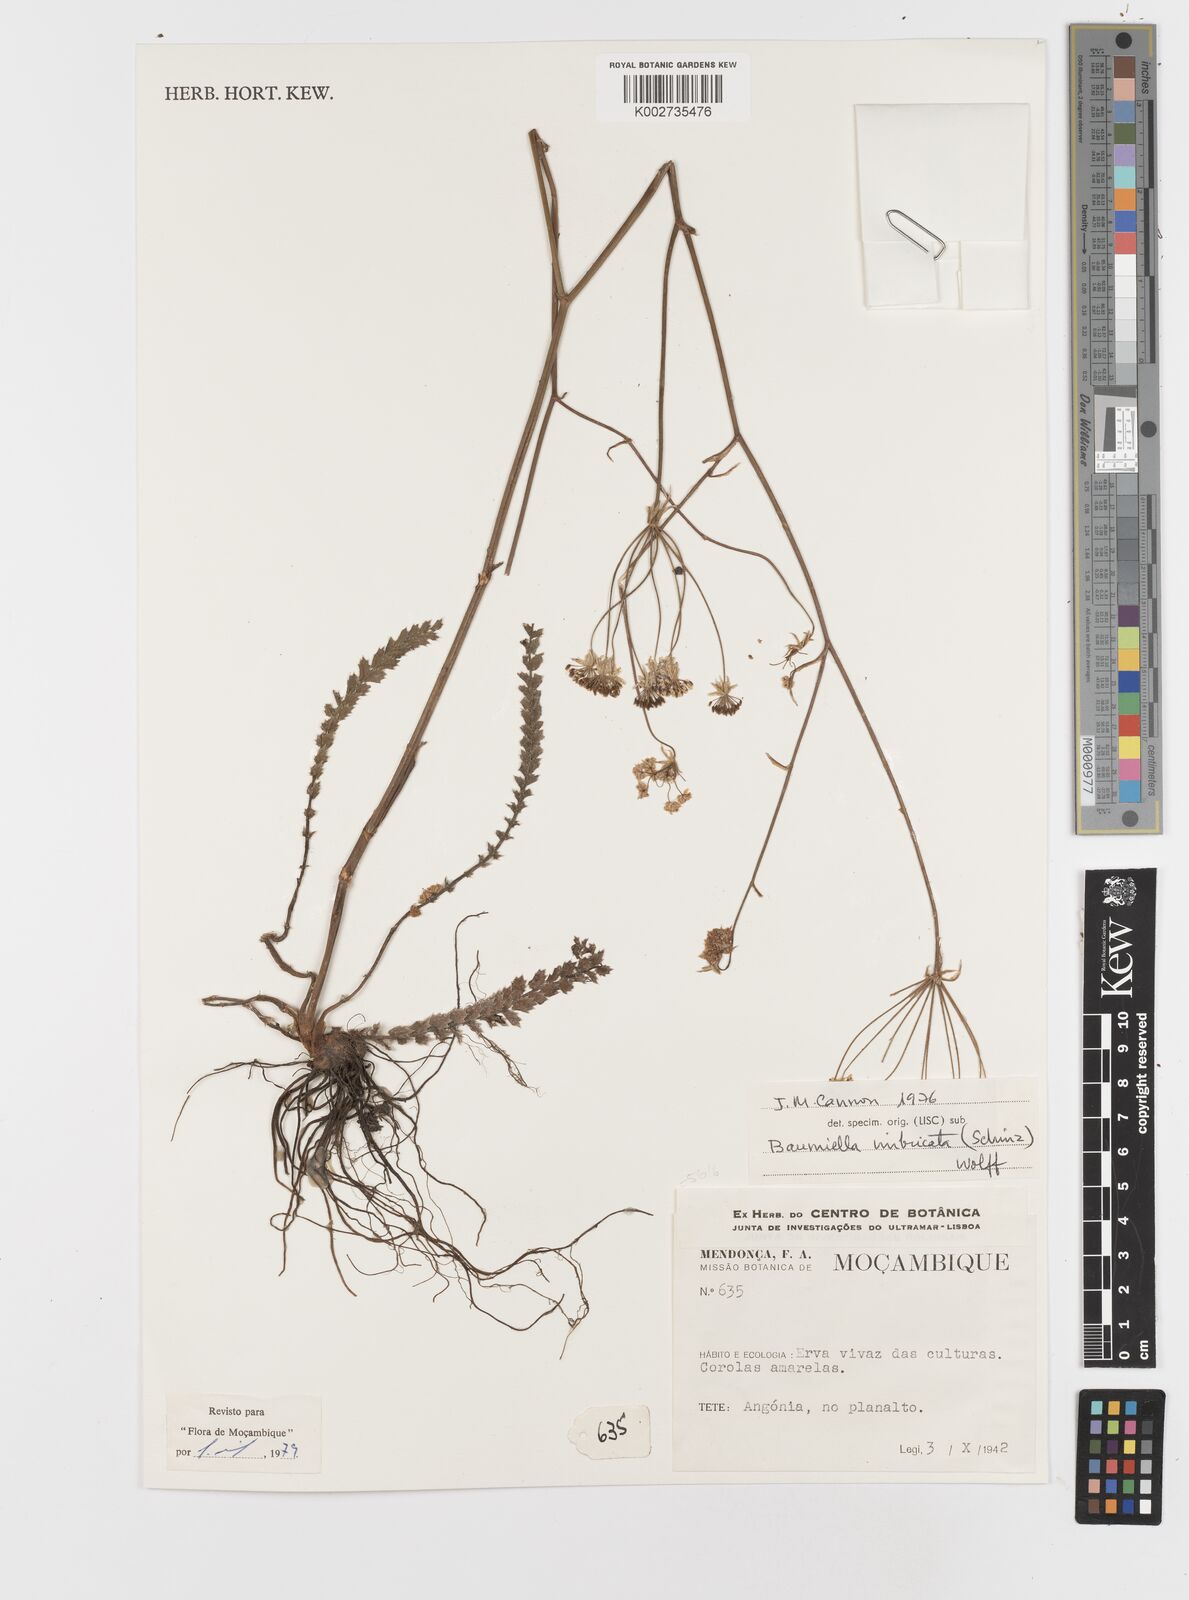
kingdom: Plantae
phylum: Tracheophyta
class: Magnoliopsida
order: Apiales
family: Apiaceae
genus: Berula
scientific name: Berula imbricata
